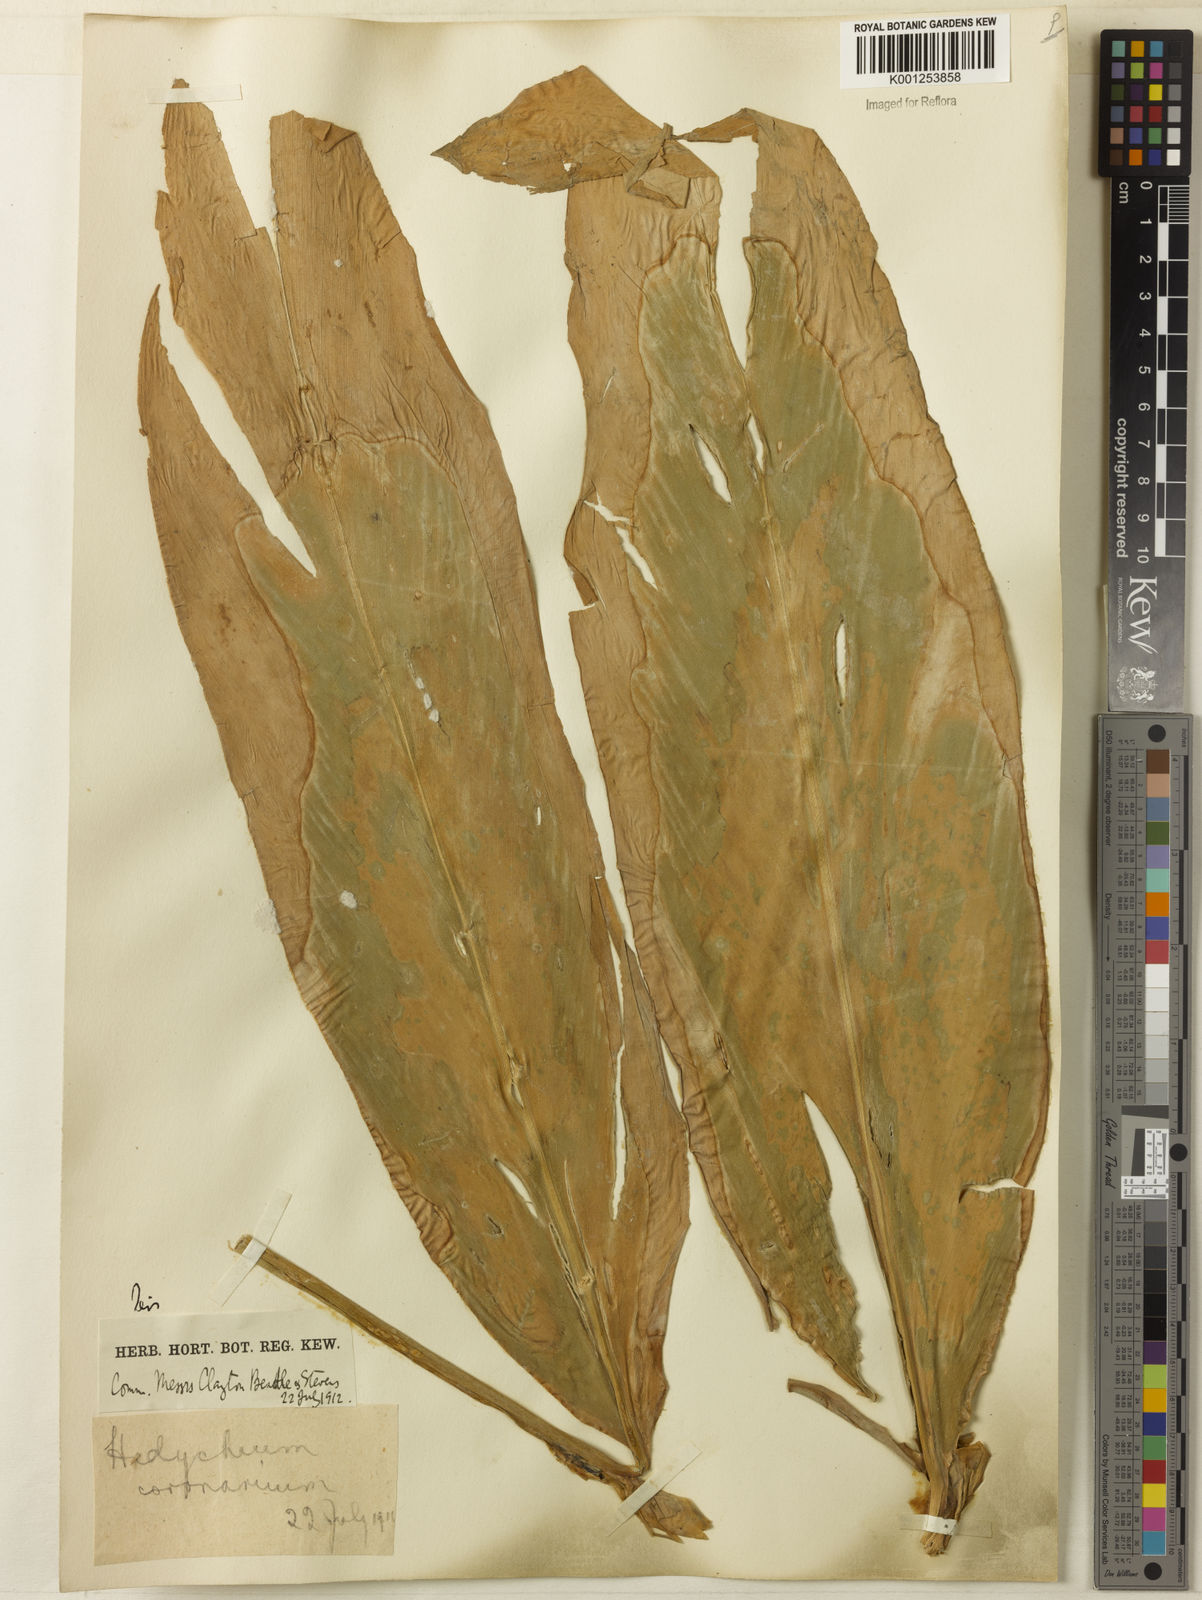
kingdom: Plantae
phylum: Tracheophyta
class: Liliopsida
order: Zingiberales
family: Zingiberaceae
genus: Hedychium
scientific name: Hedychium coronarium
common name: White garland-lily
